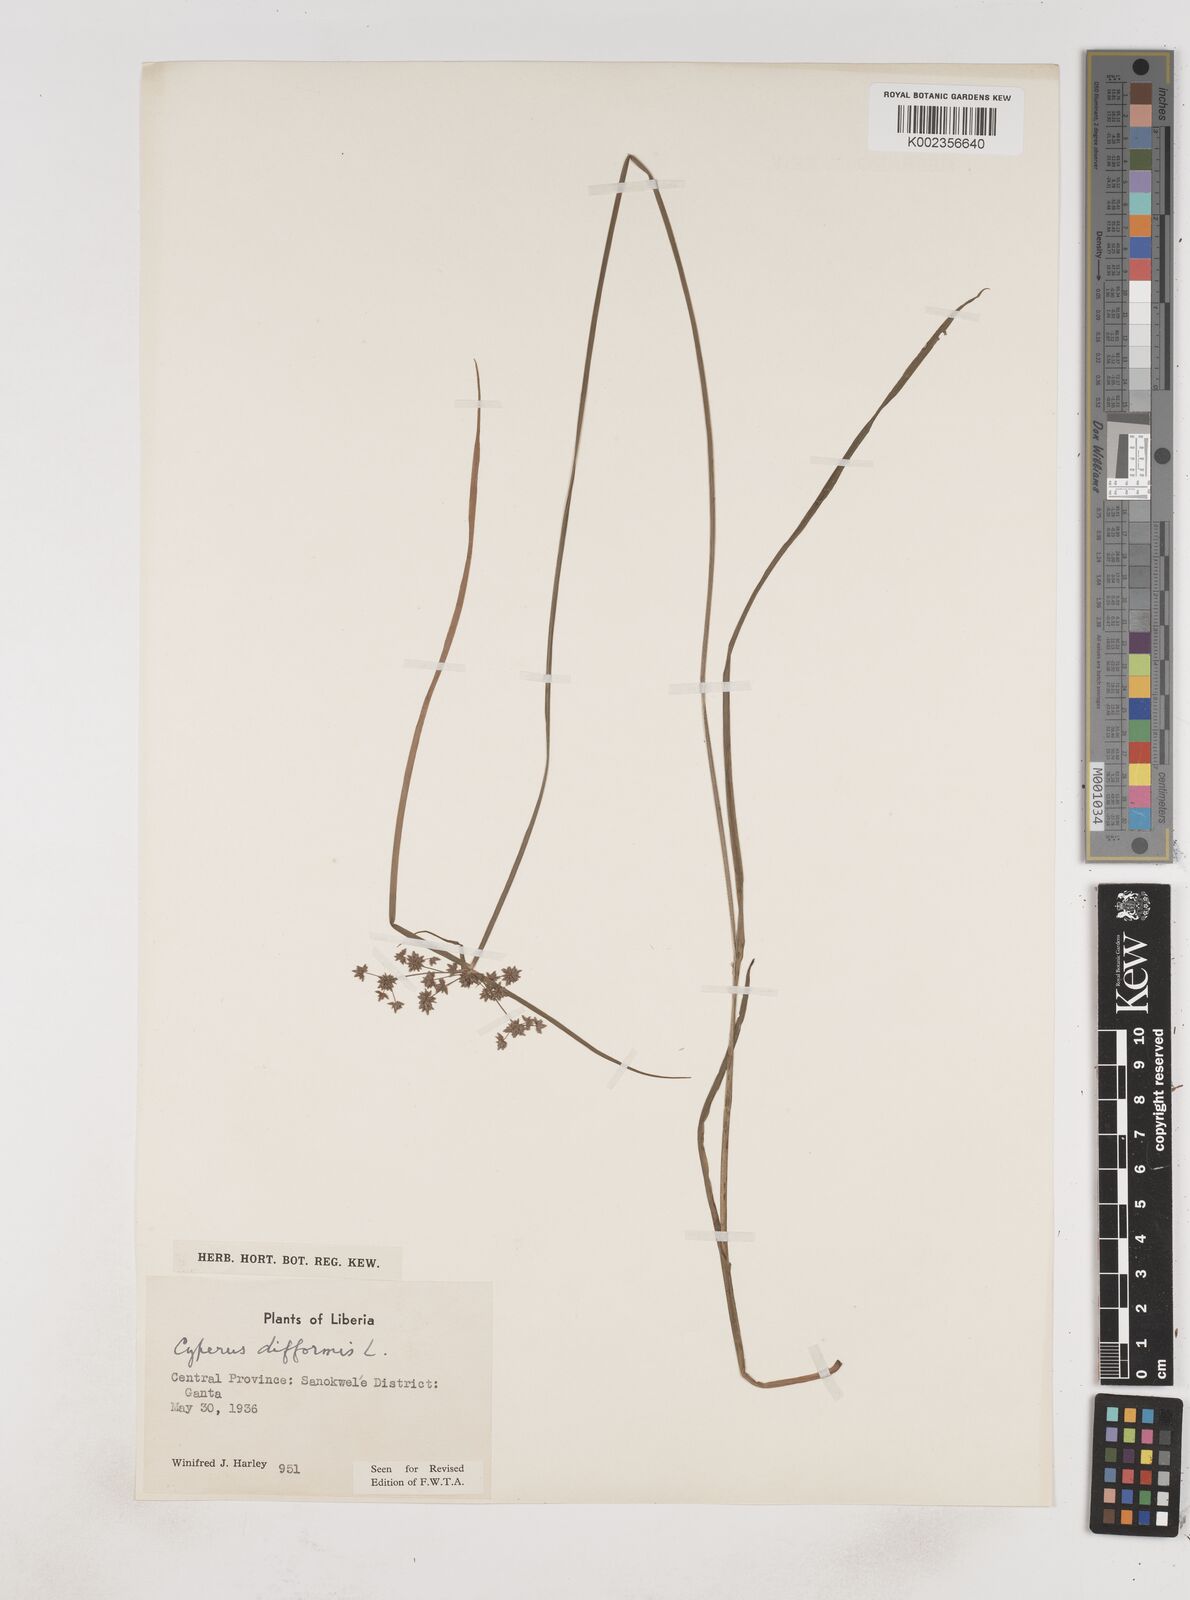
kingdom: Plantae
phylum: Tracheophyta
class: Liliopsida
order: Poales
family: Cyperaceae
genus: Cyperus
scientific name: Cyperus difformis
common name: Variable flatsedge
